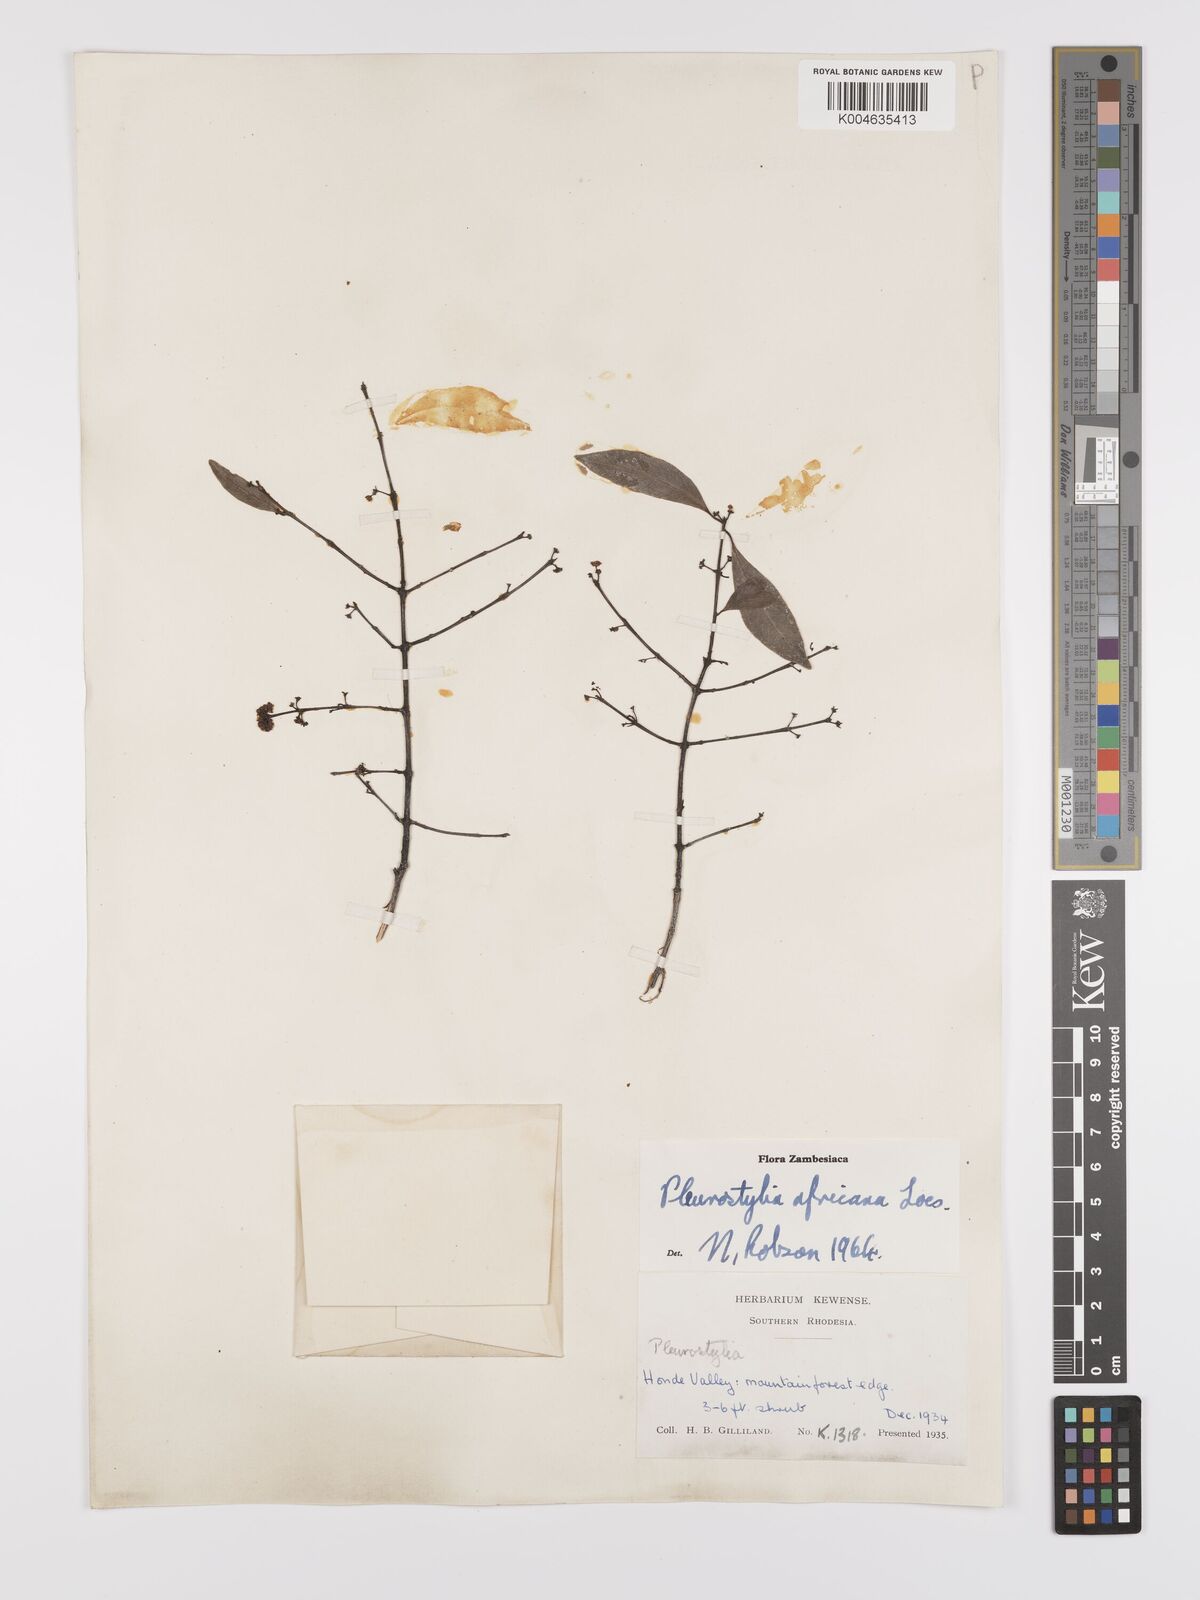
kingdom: Plantae
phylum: Tracheophyta
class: Magnoliopsida
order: Celastrales
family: Celastraceae
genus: Pleurostylia
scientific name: Pleurostylia africana
